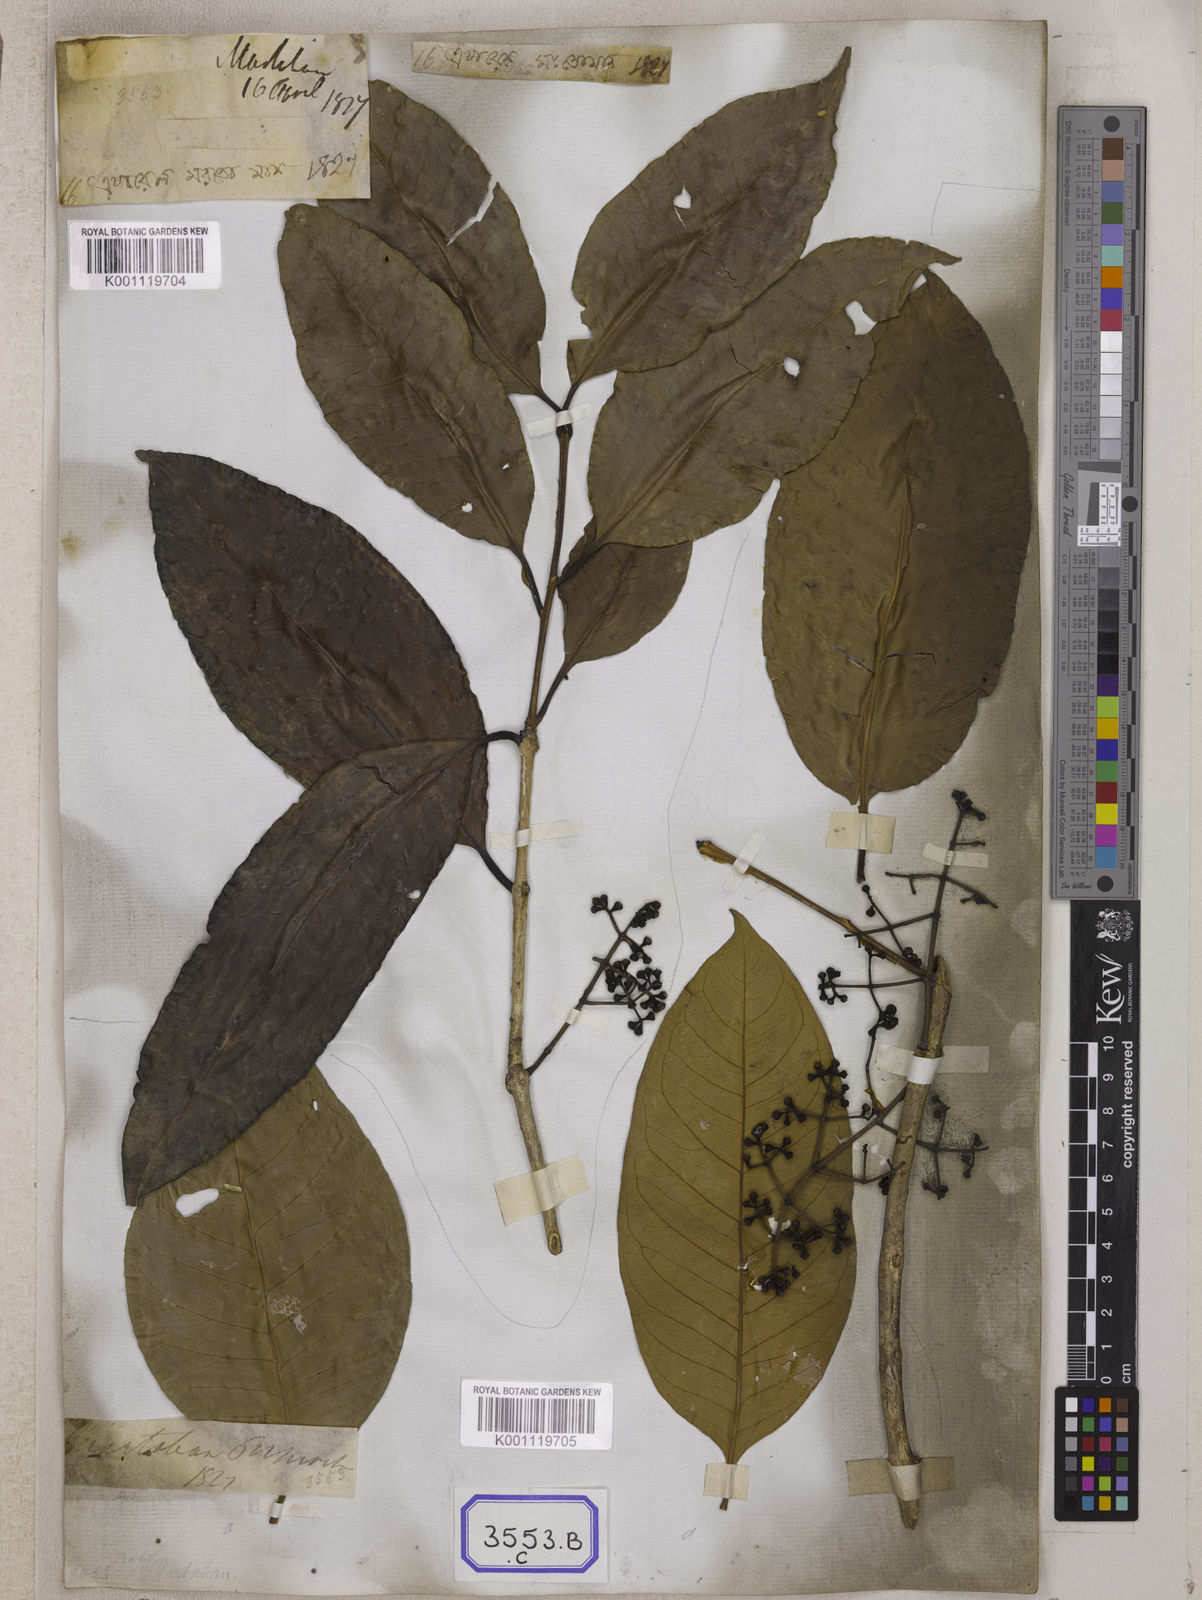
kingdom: Plantae
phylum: Tracheophyta
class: Magnoliopsida
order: Myrtales
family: Myrtaceae
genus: Syzygium
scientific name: Syzygium
